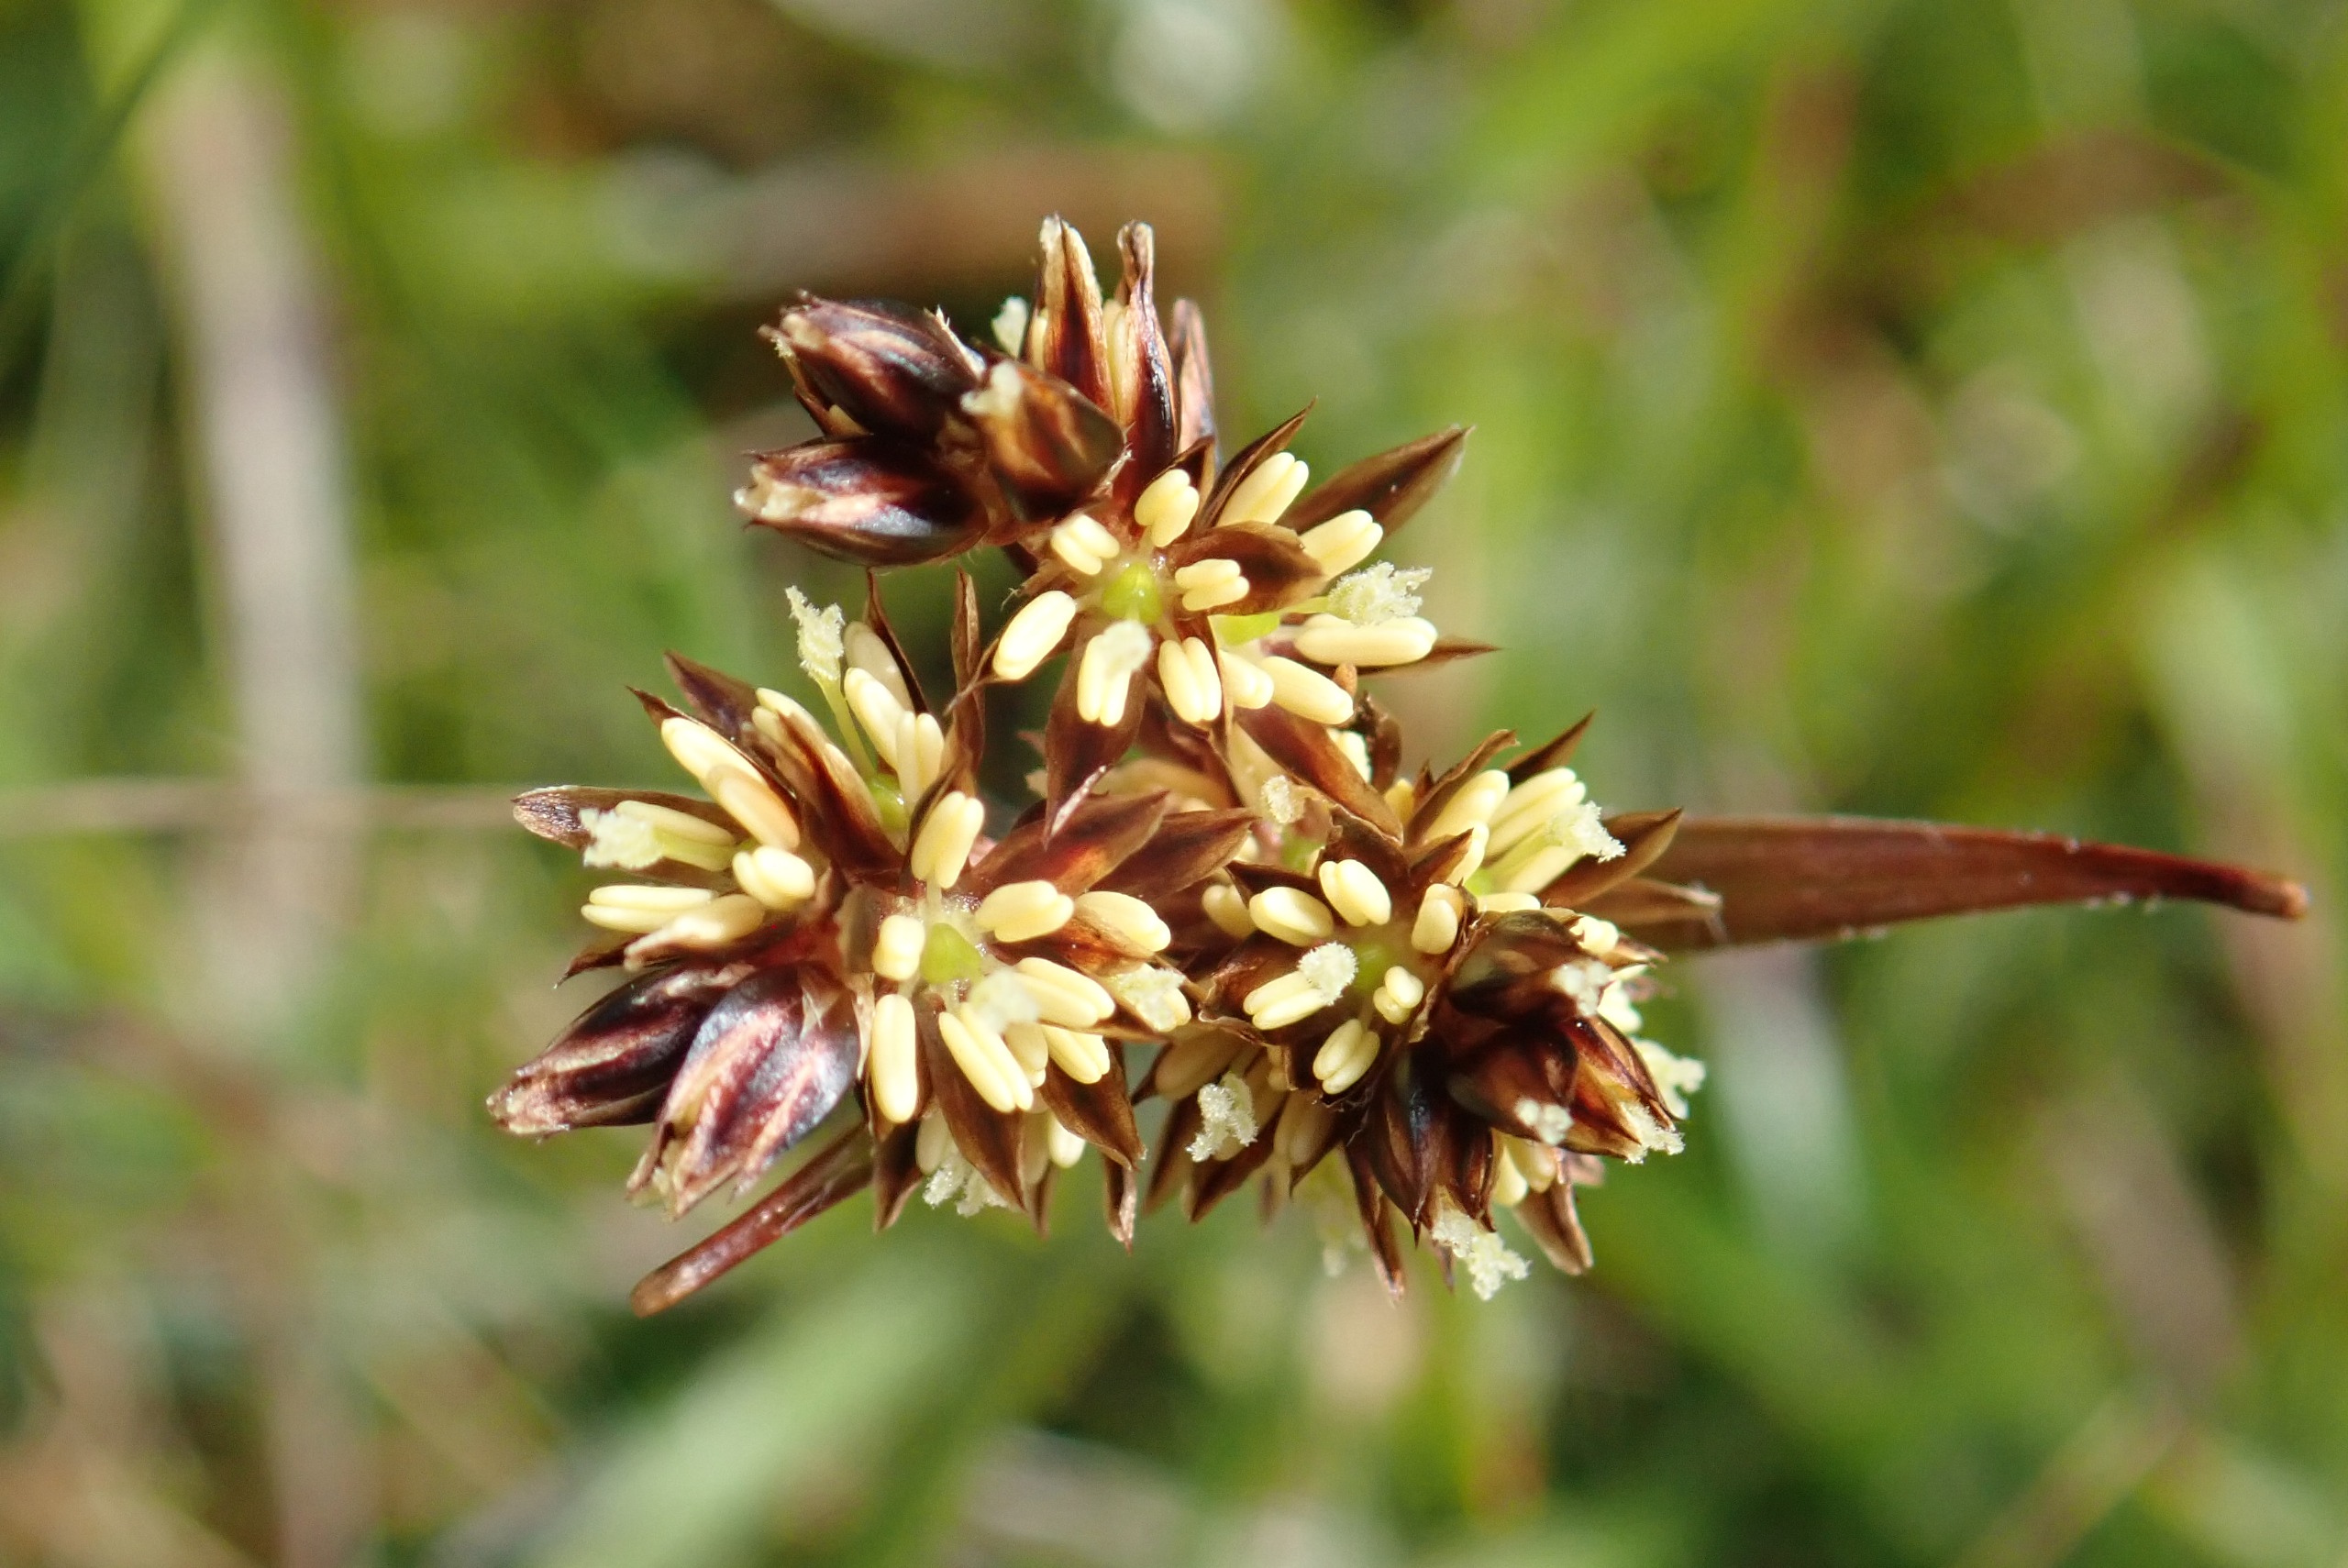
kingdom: Plantae
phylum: Tracheophyta
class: Liliopsida
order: Poales
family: Juncaceae
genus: Luzula
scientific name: Luzula campestris
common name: Mark-frytle
